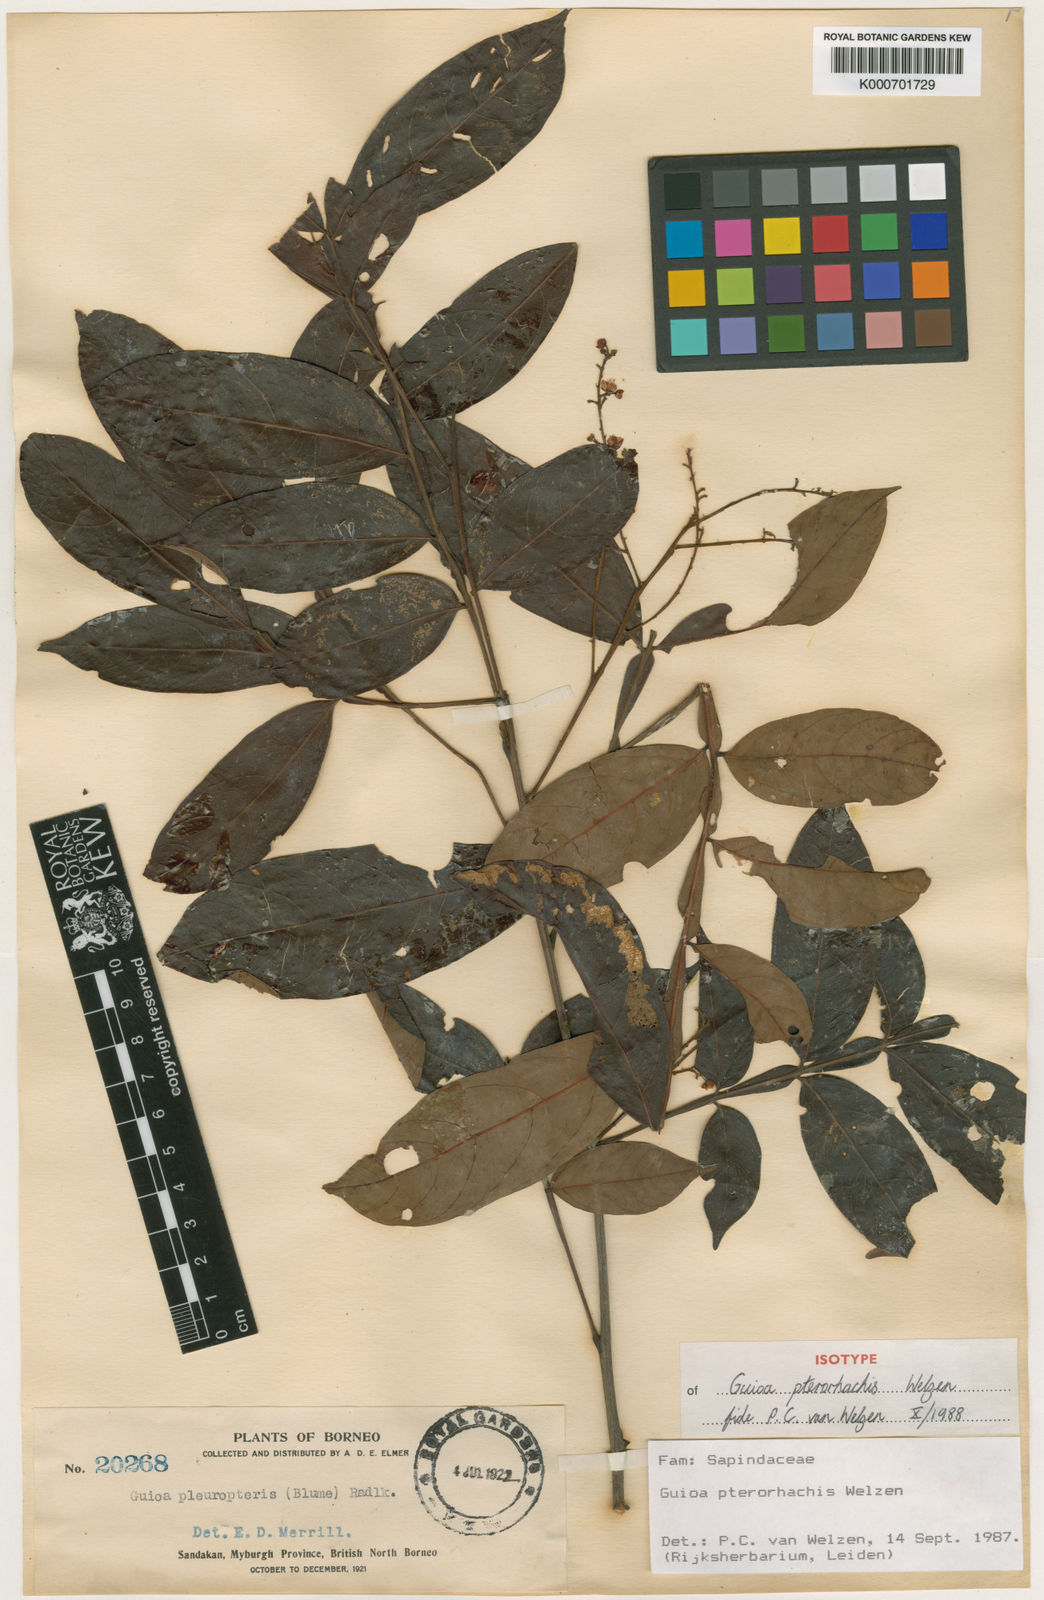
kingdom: Plantae
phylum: Tracheophyta
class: Magnoliopsida
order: Sapindales
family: Sapindaceae
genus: Guioa
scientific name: Guioa pterorhachis
